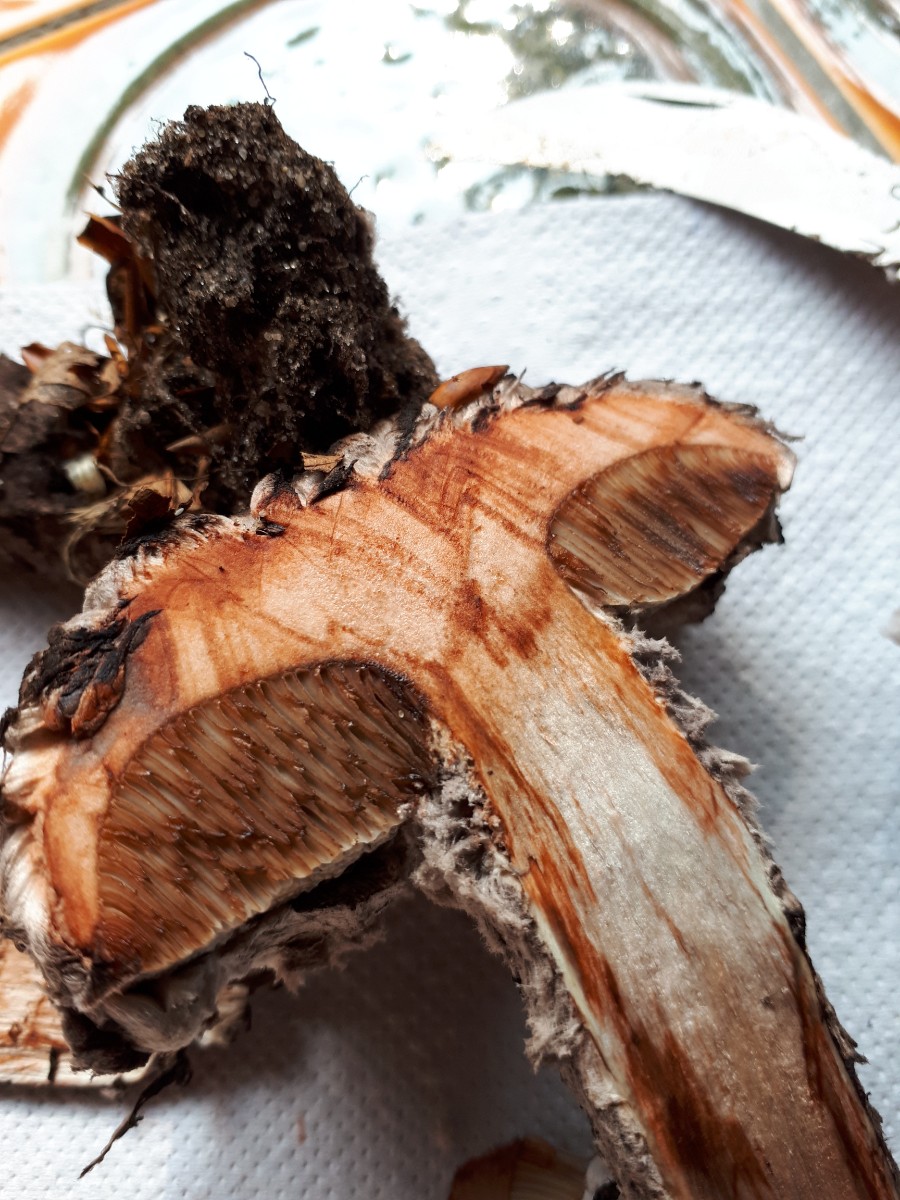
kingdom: Fungi
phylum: Basidiomycota
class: Agaricomycetes
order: Boletales
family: Boletaceae
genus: Strobilomyces
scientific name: Strobilomyces strobilaceus
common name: koglerørhat
